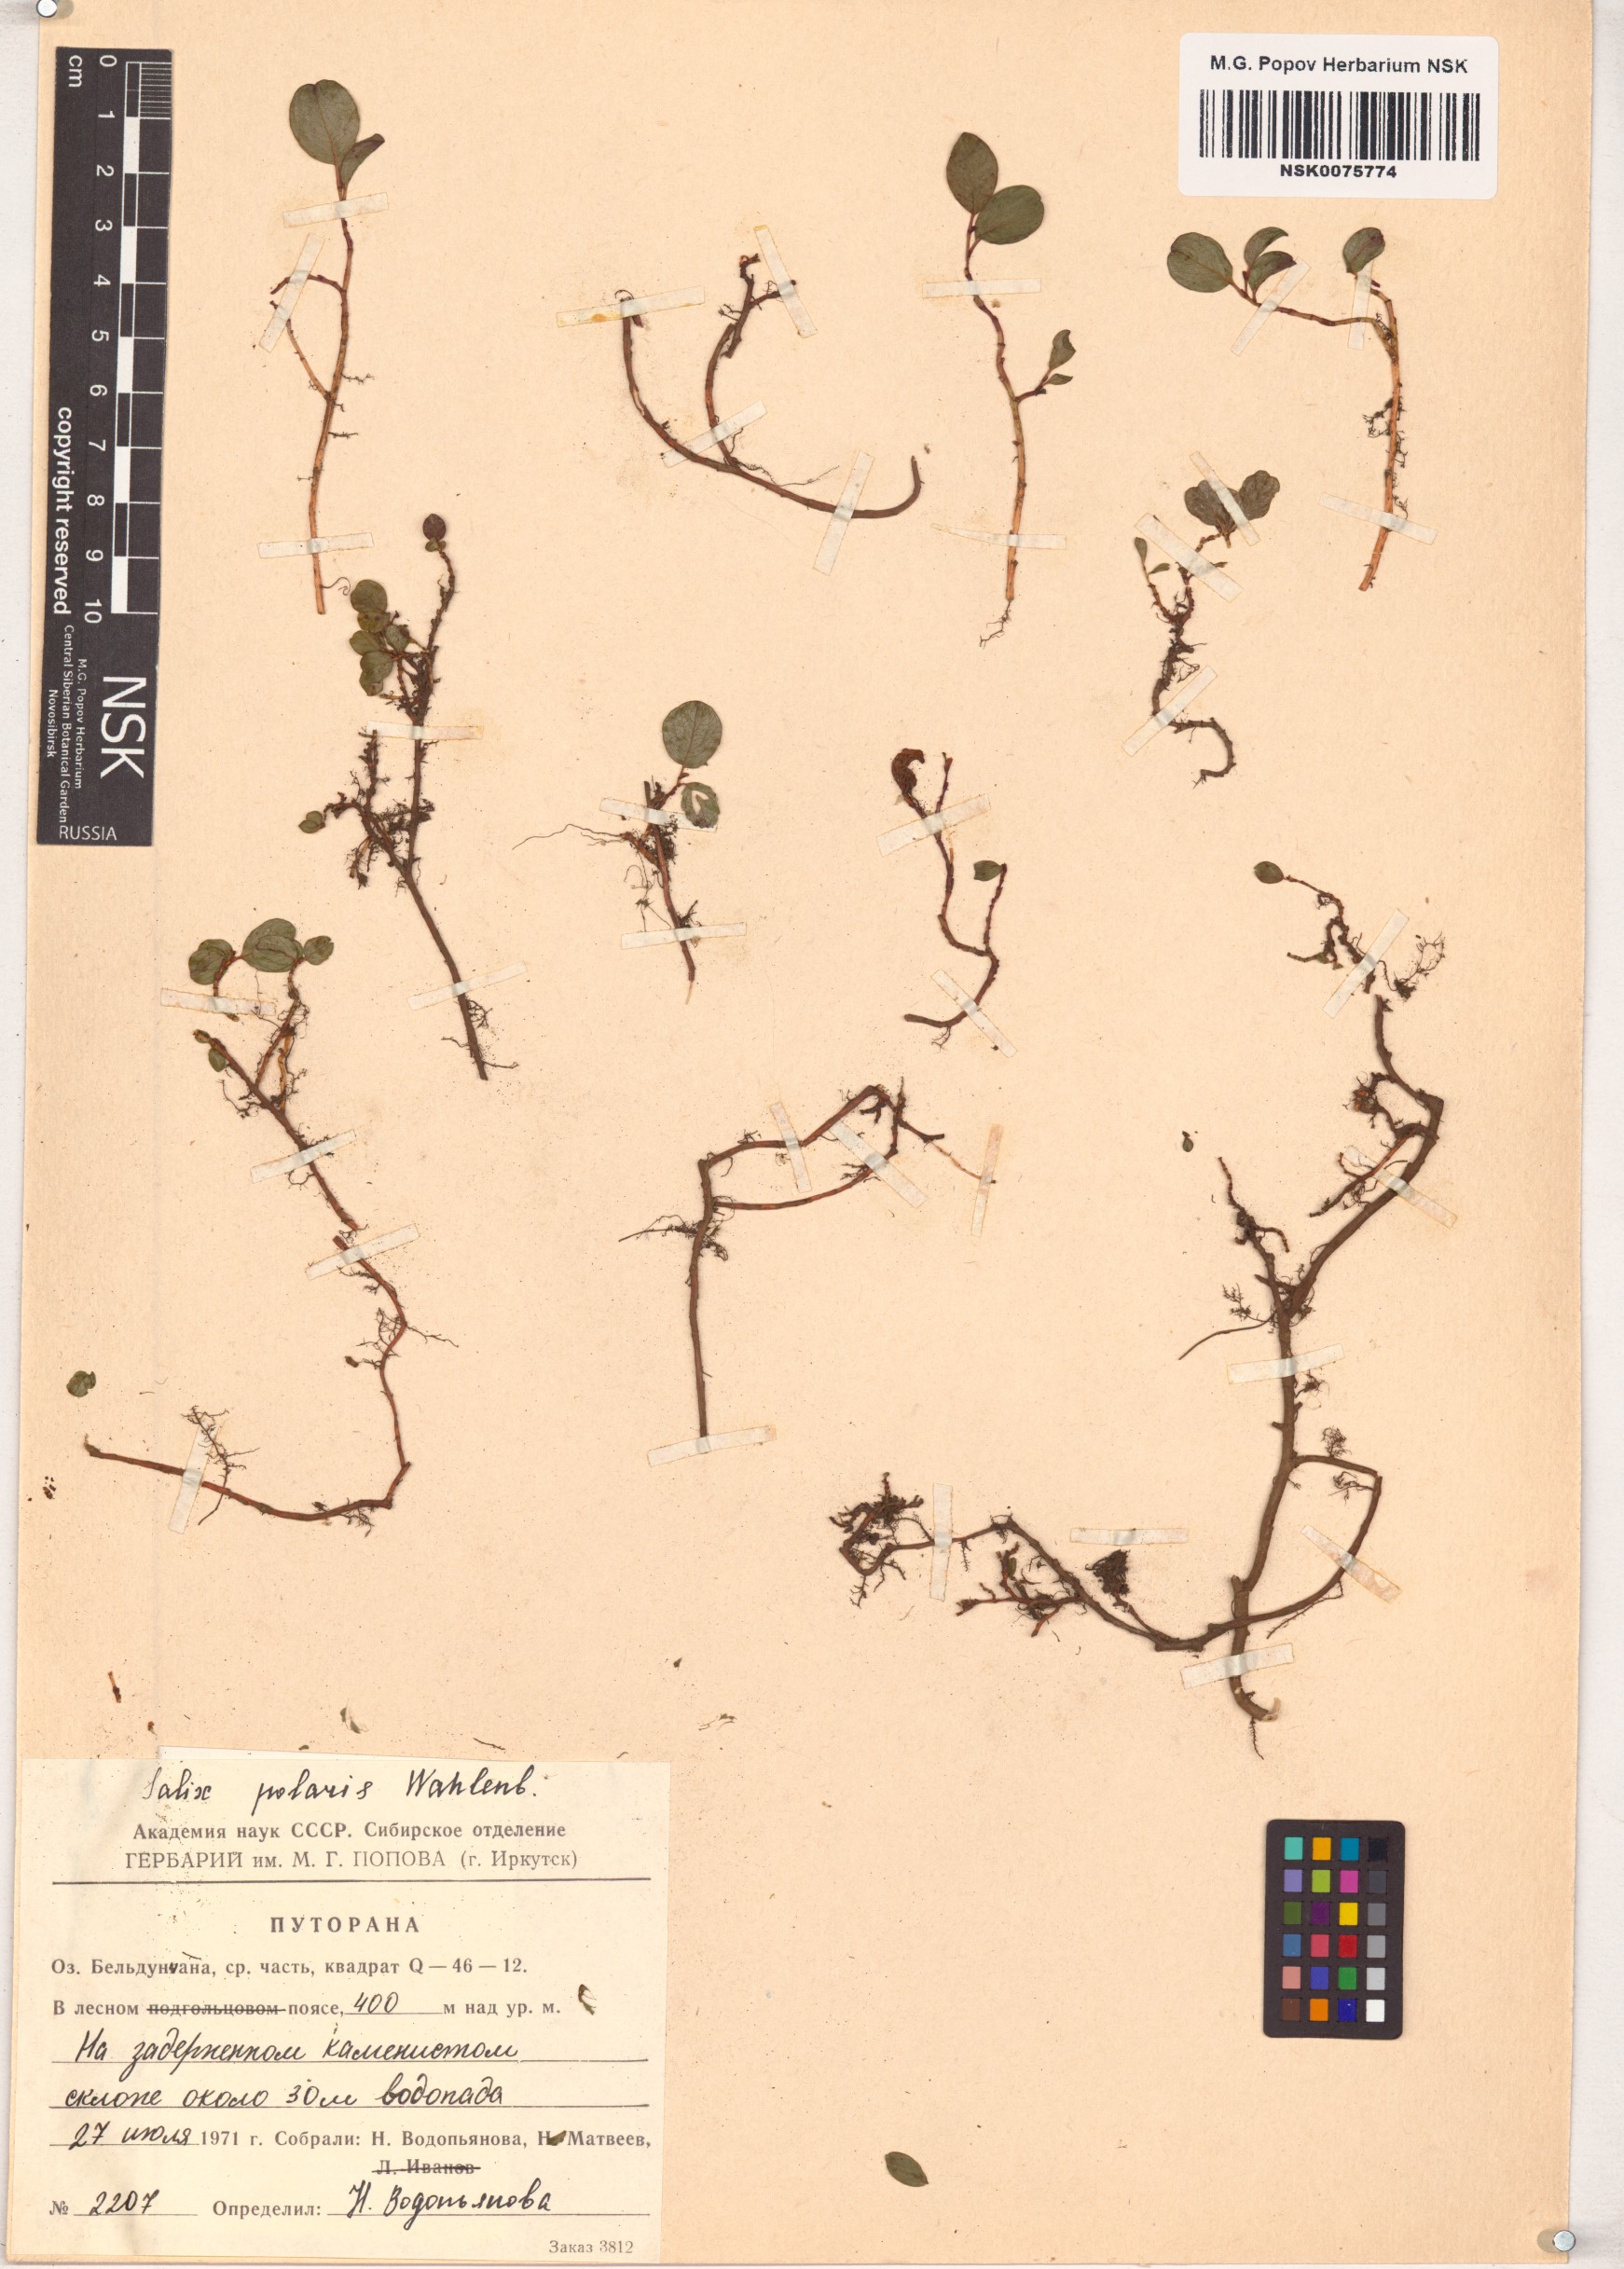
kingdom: Plantae
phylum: Tracheophyta
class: Magnoliopsida
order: Malpighiales
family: Salicaceae
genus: Salix
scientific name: Salix polaris
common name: Polar willow
